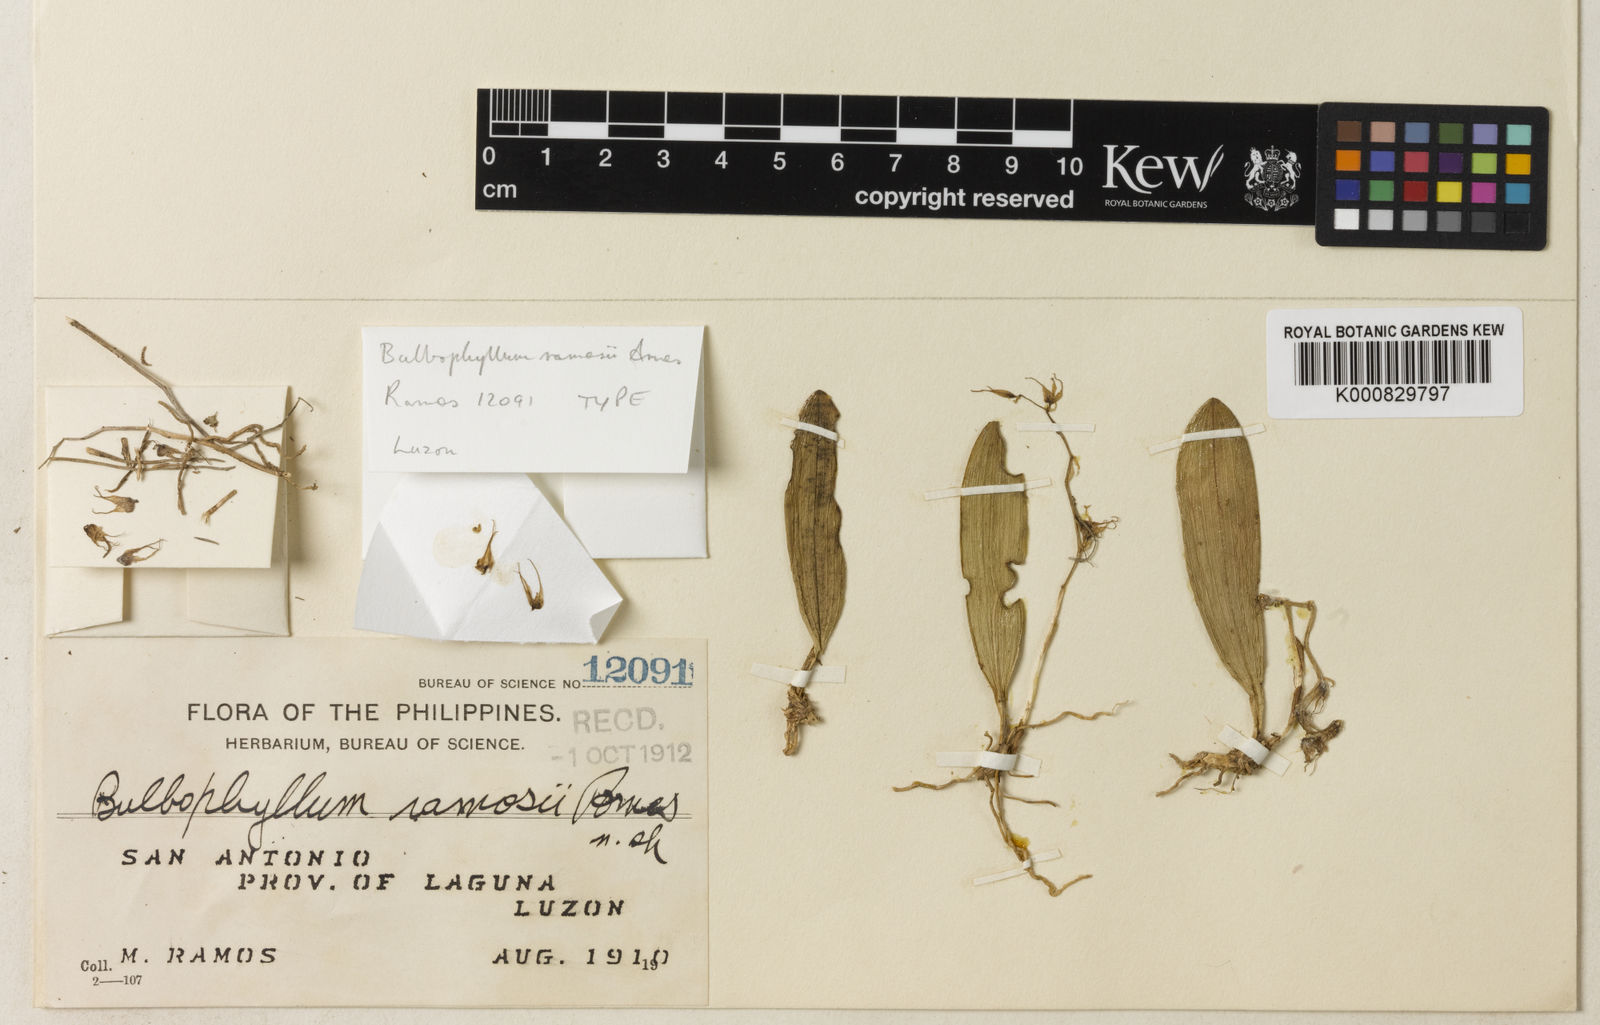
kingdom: Plantae
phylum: Tracheophyta
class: Liliopsida
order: Asparagales
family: Orchidaceae
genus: Bulbophyllum
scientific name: Bulbophyllum flavescens
